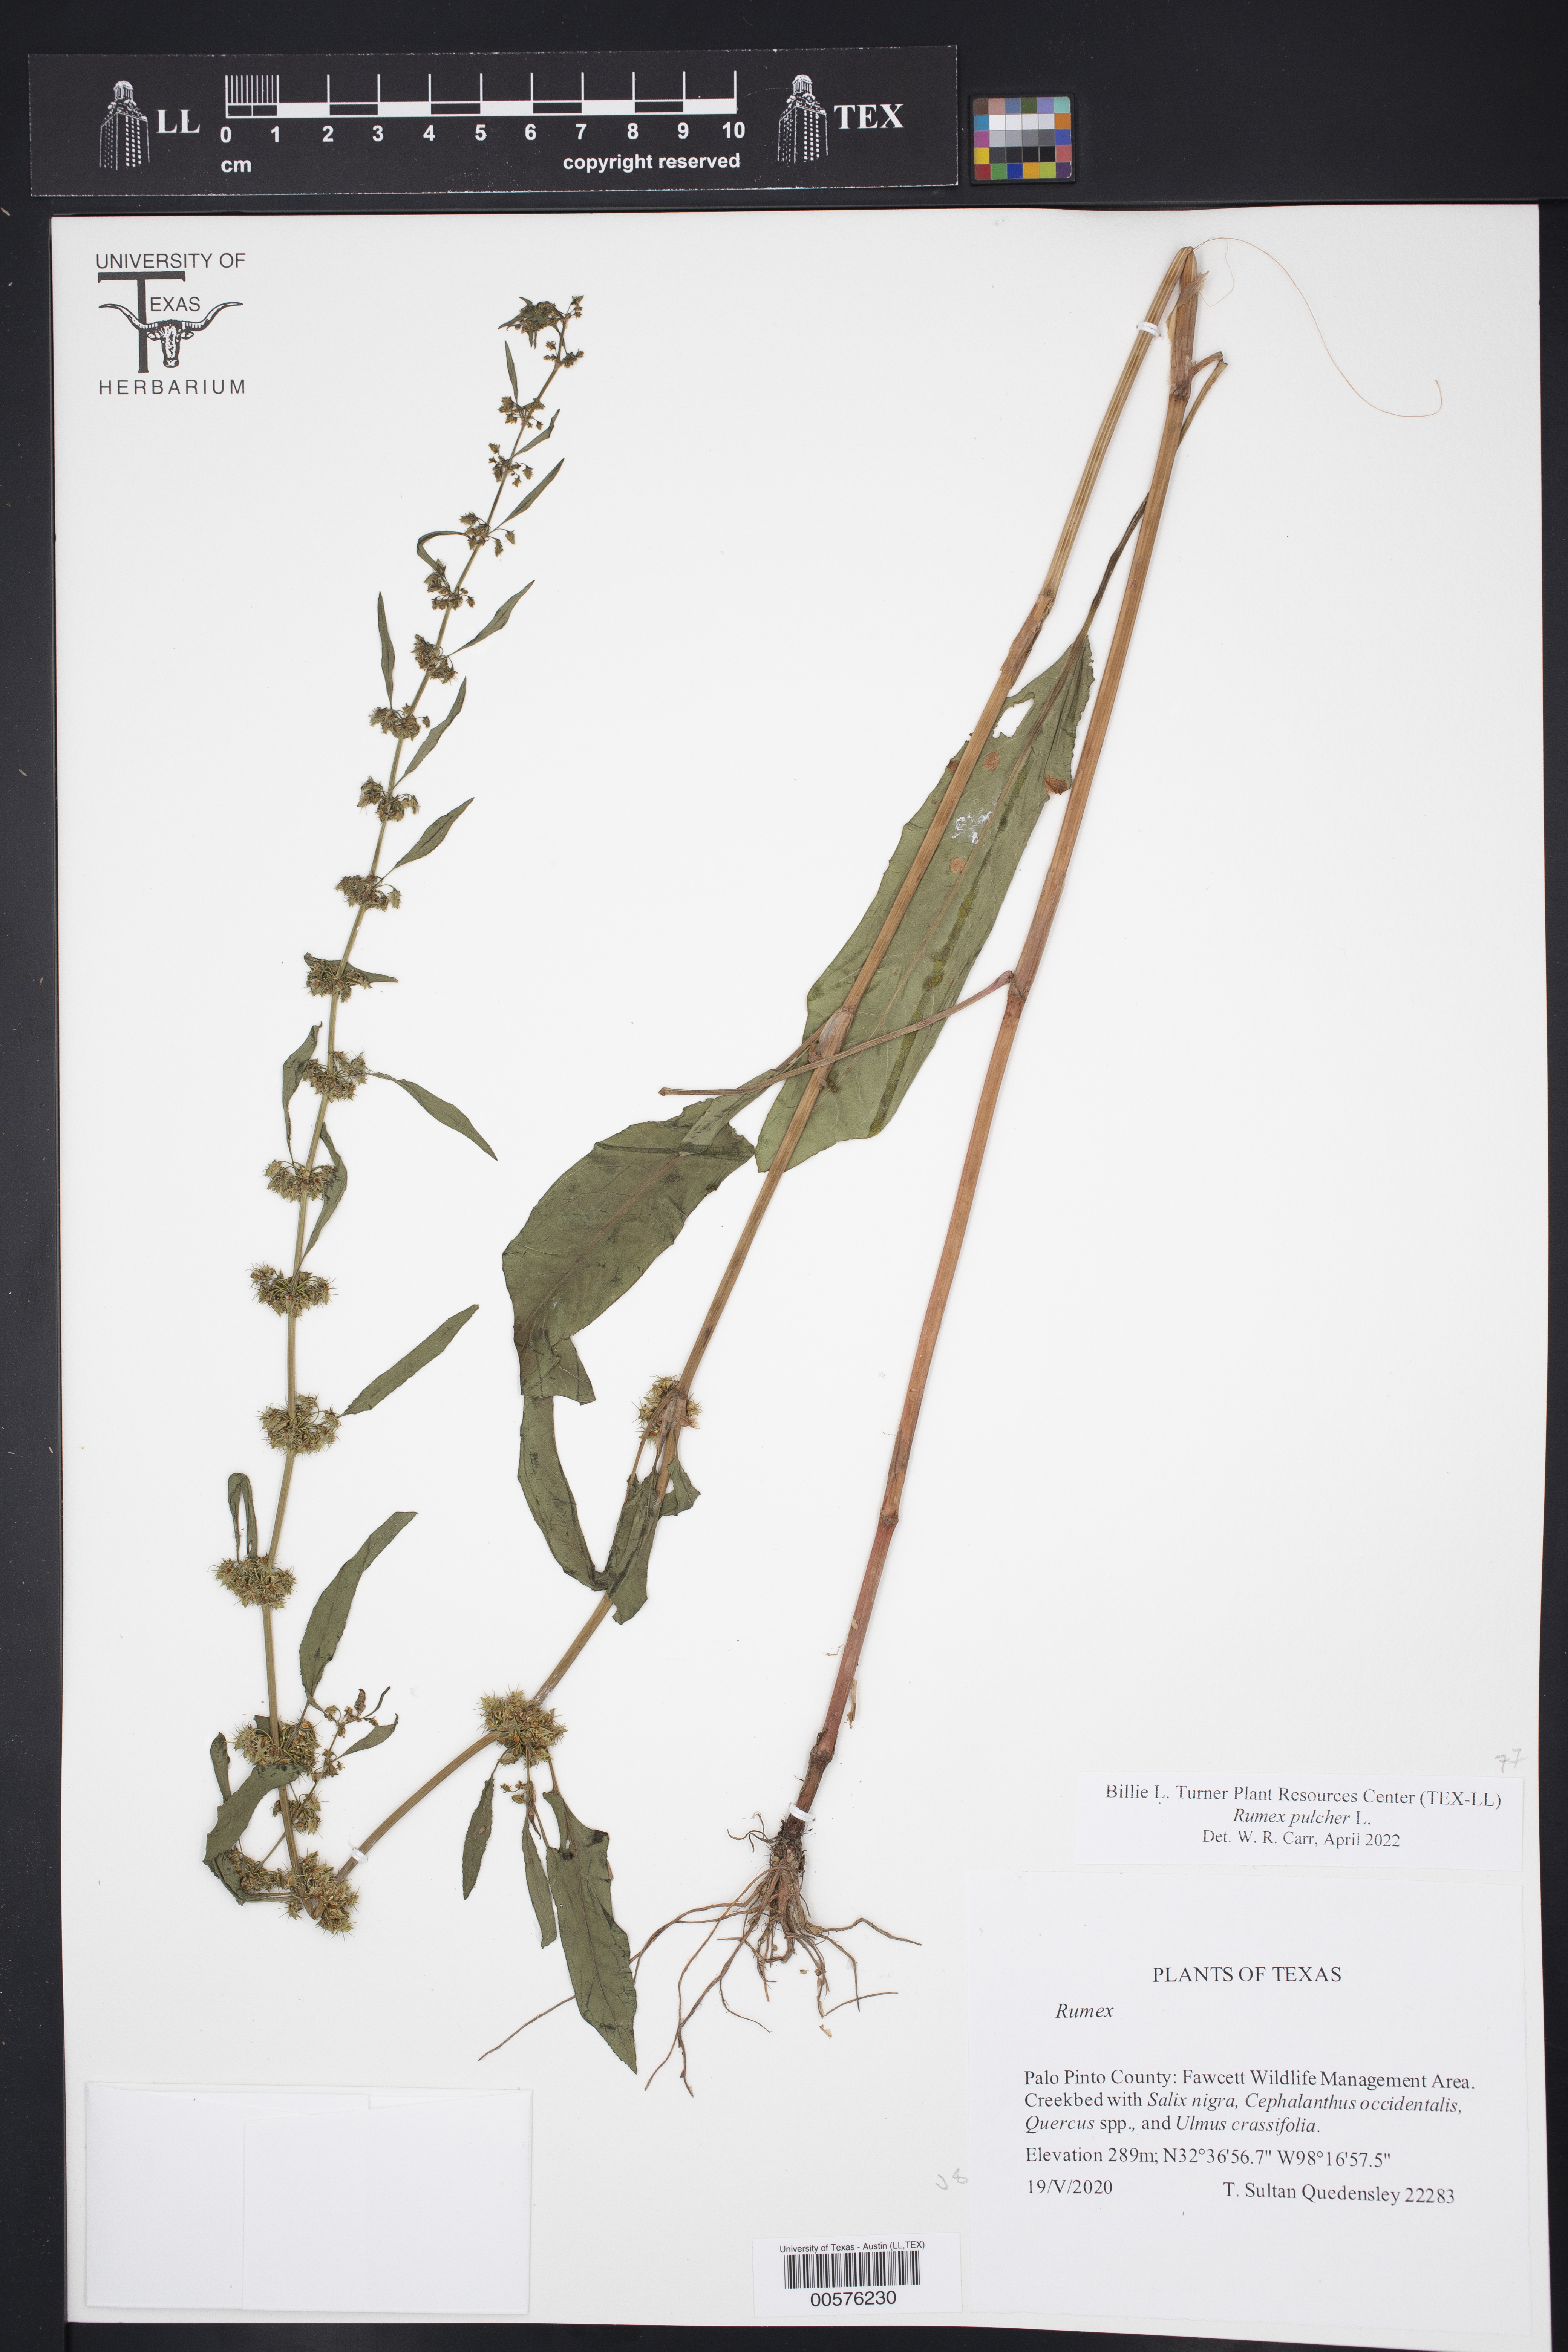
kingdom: Plantae
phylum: Tracheophyta
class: Magnoliopsida
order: Caryophyllales
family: Polygonaceae
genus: Rumex
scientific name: Rumex pulcher
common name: Fiddle dock
